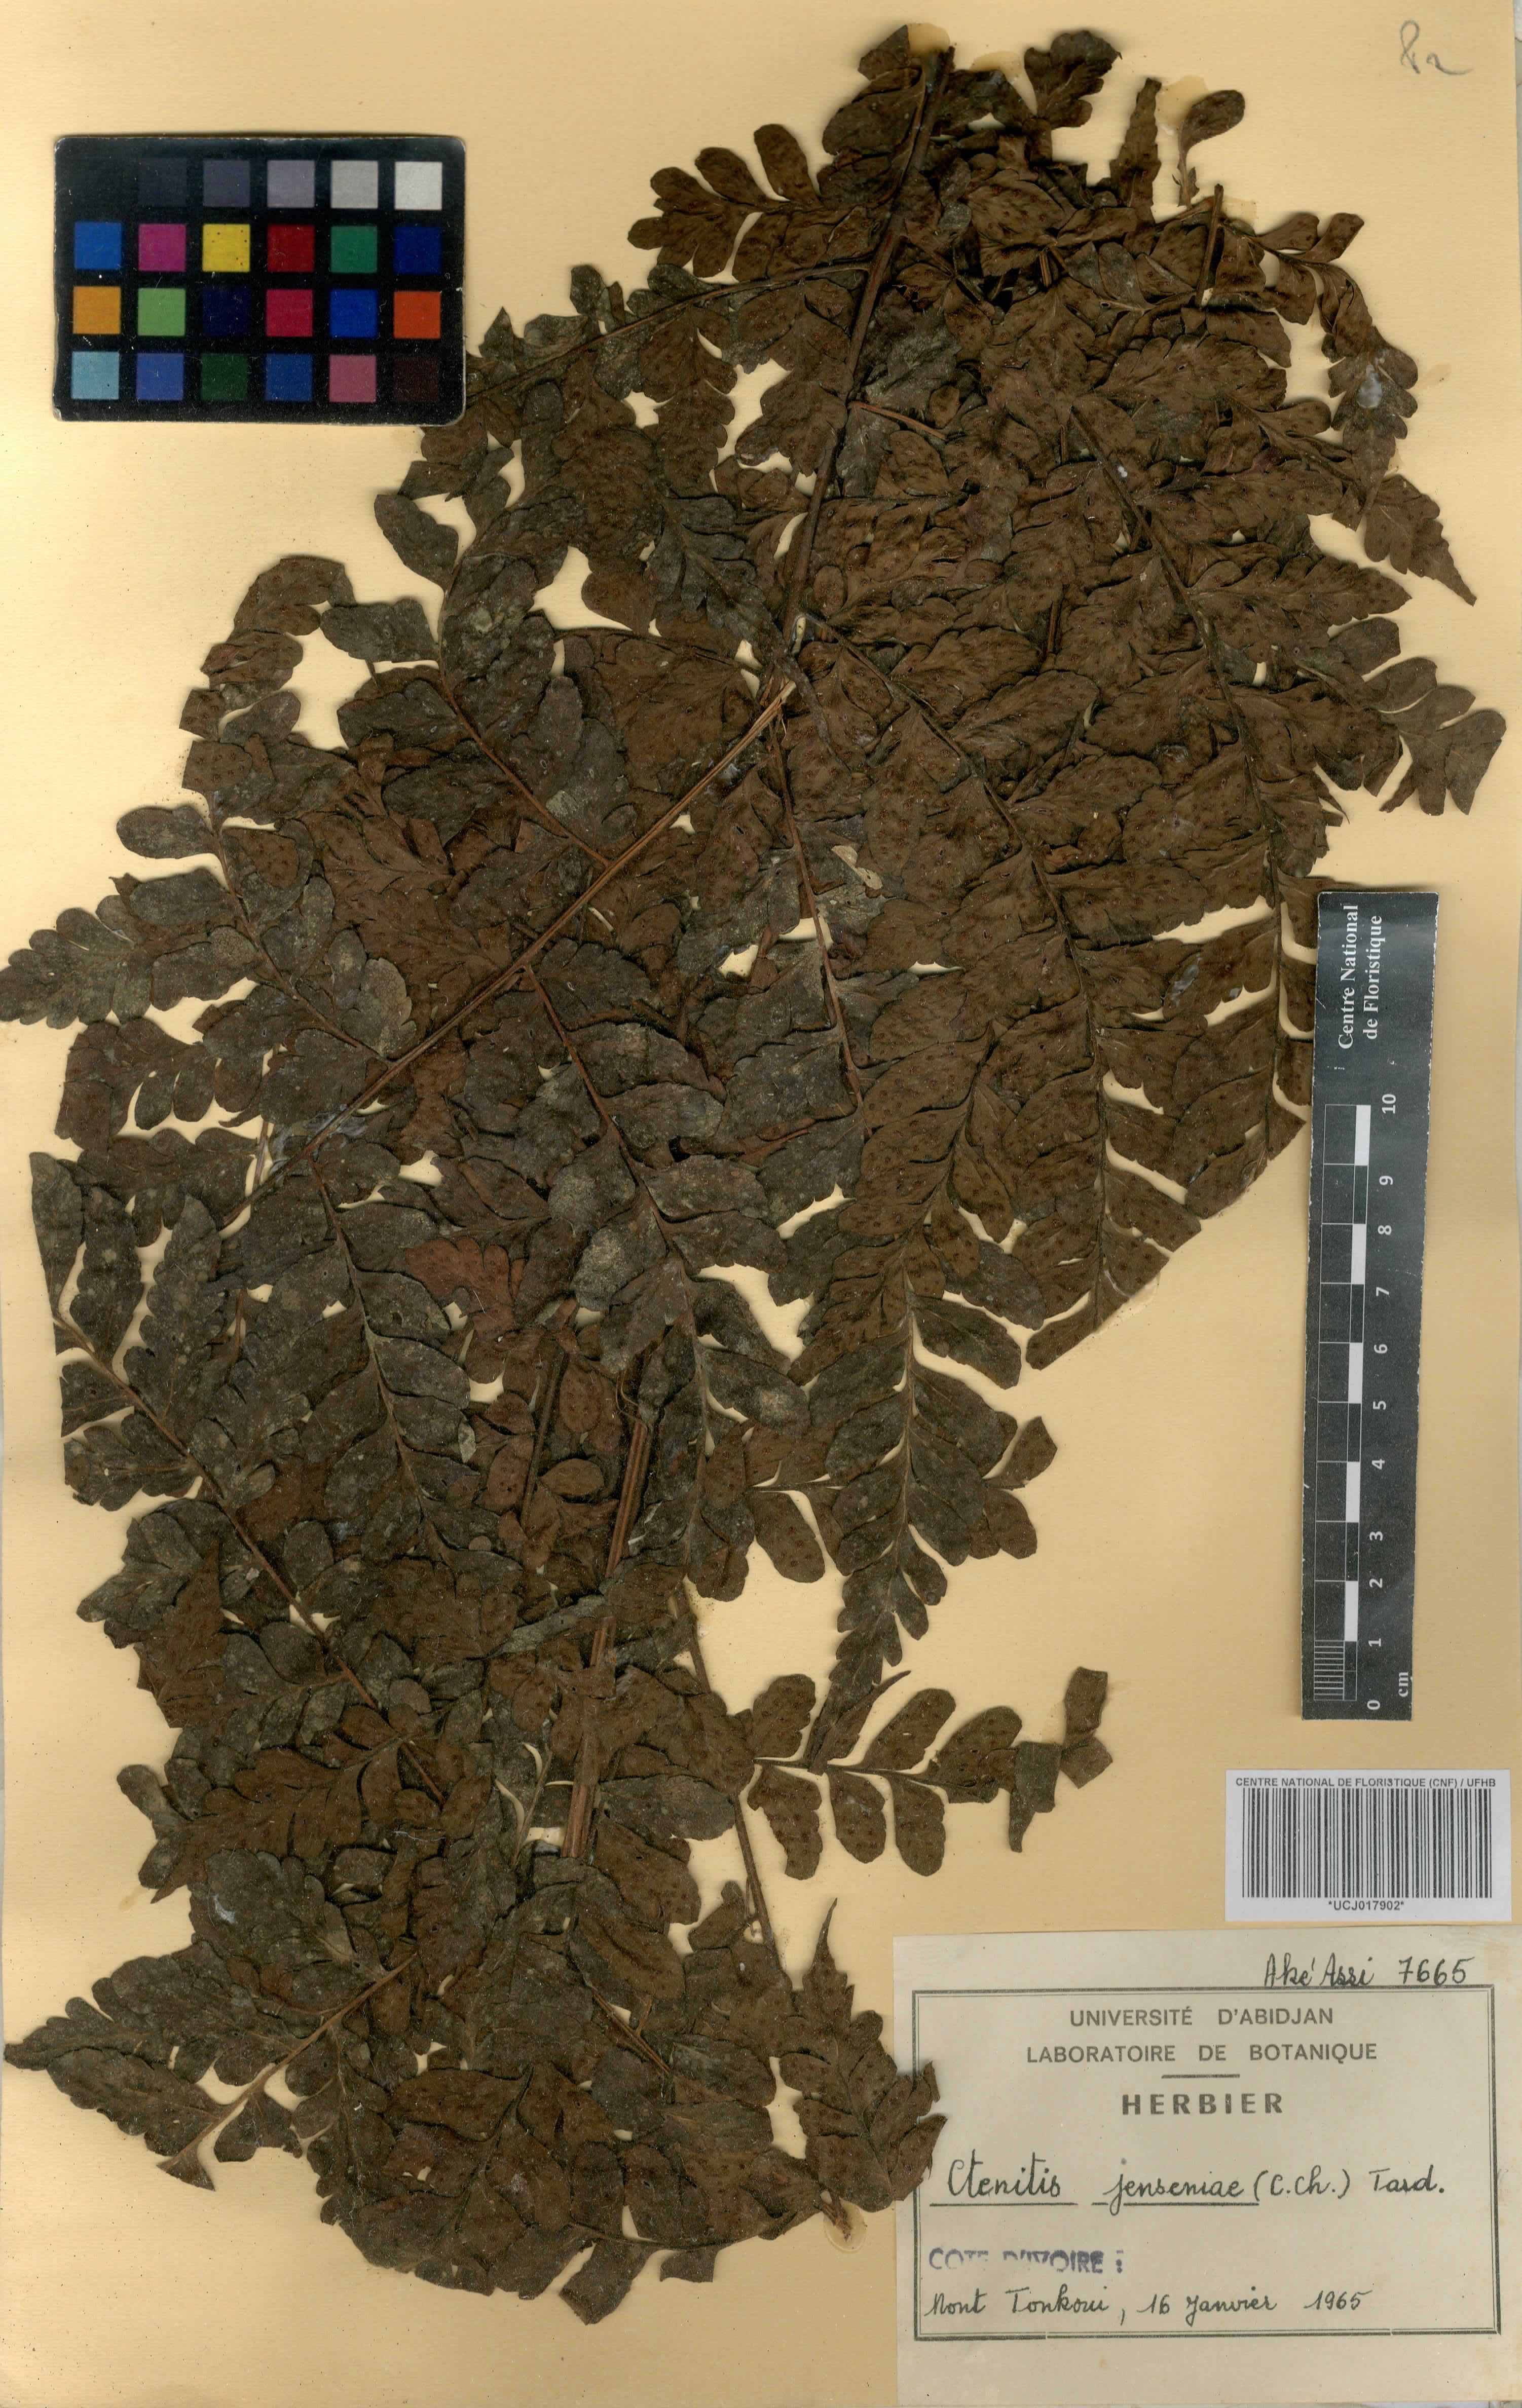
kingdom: Plantae
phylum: Tracheophyta
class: Polypodiopsida
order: Polypodiales
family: Tectariaceae
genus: Triplophyllum
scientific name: Triplophyllum jenseniae
